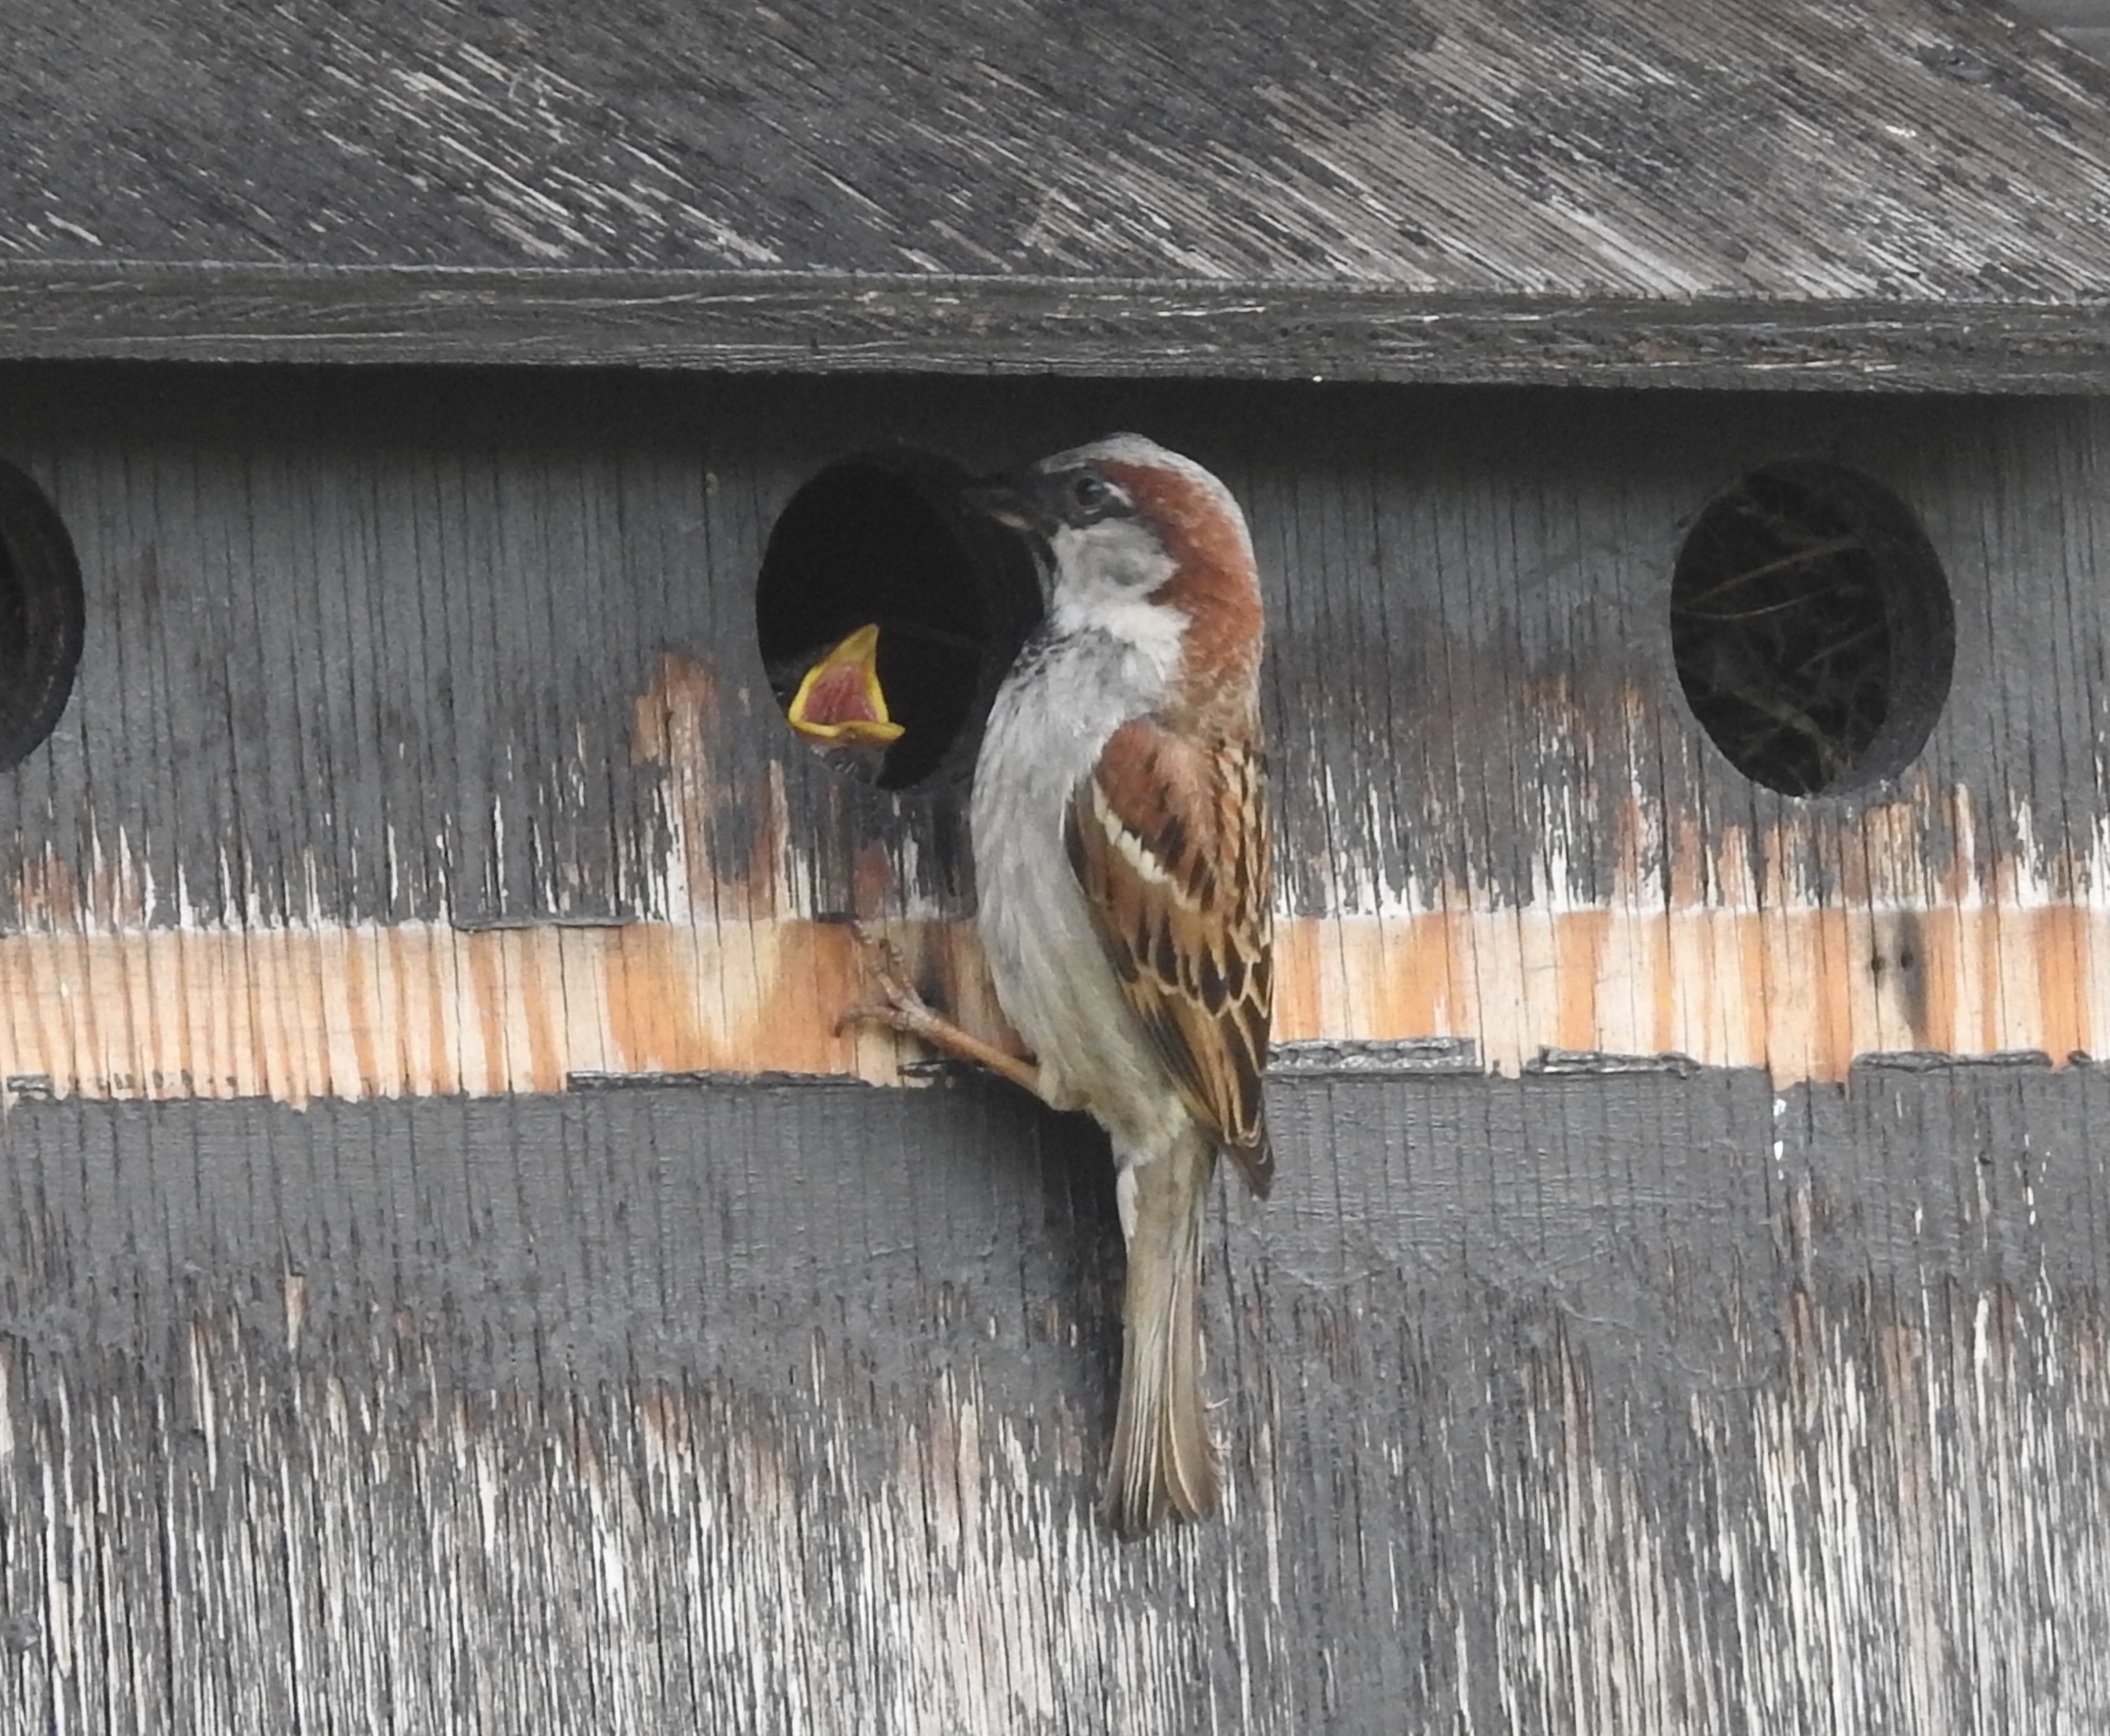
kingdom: Animalia
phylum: Chordata
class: Aves
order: Passeriformes
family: Passeridae
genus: Passer
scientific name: Passer domesticus
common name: Gråspurv
